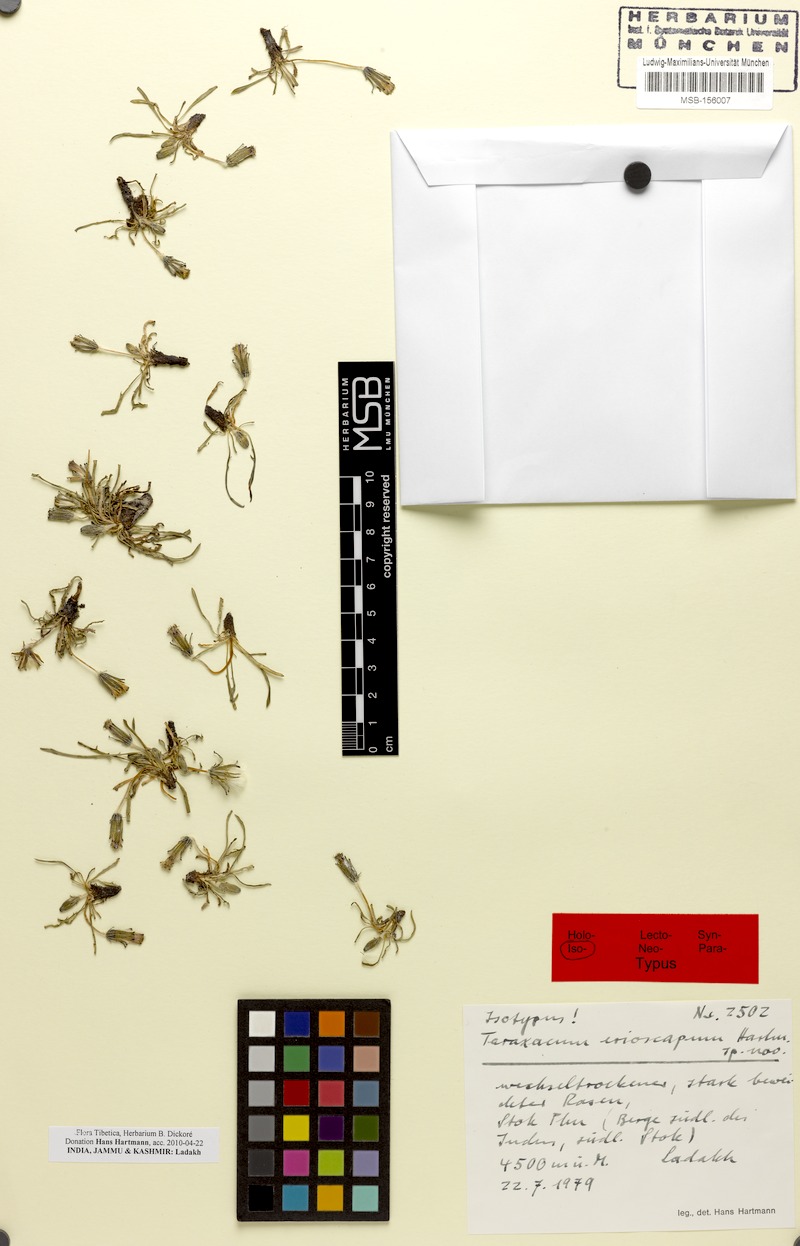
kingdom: Plantae
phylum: Tracheophyta
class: Magnoliopsida
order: Asterales
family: Asteraceae
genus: Taraxacum
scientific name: Taraxacum erioscapum
